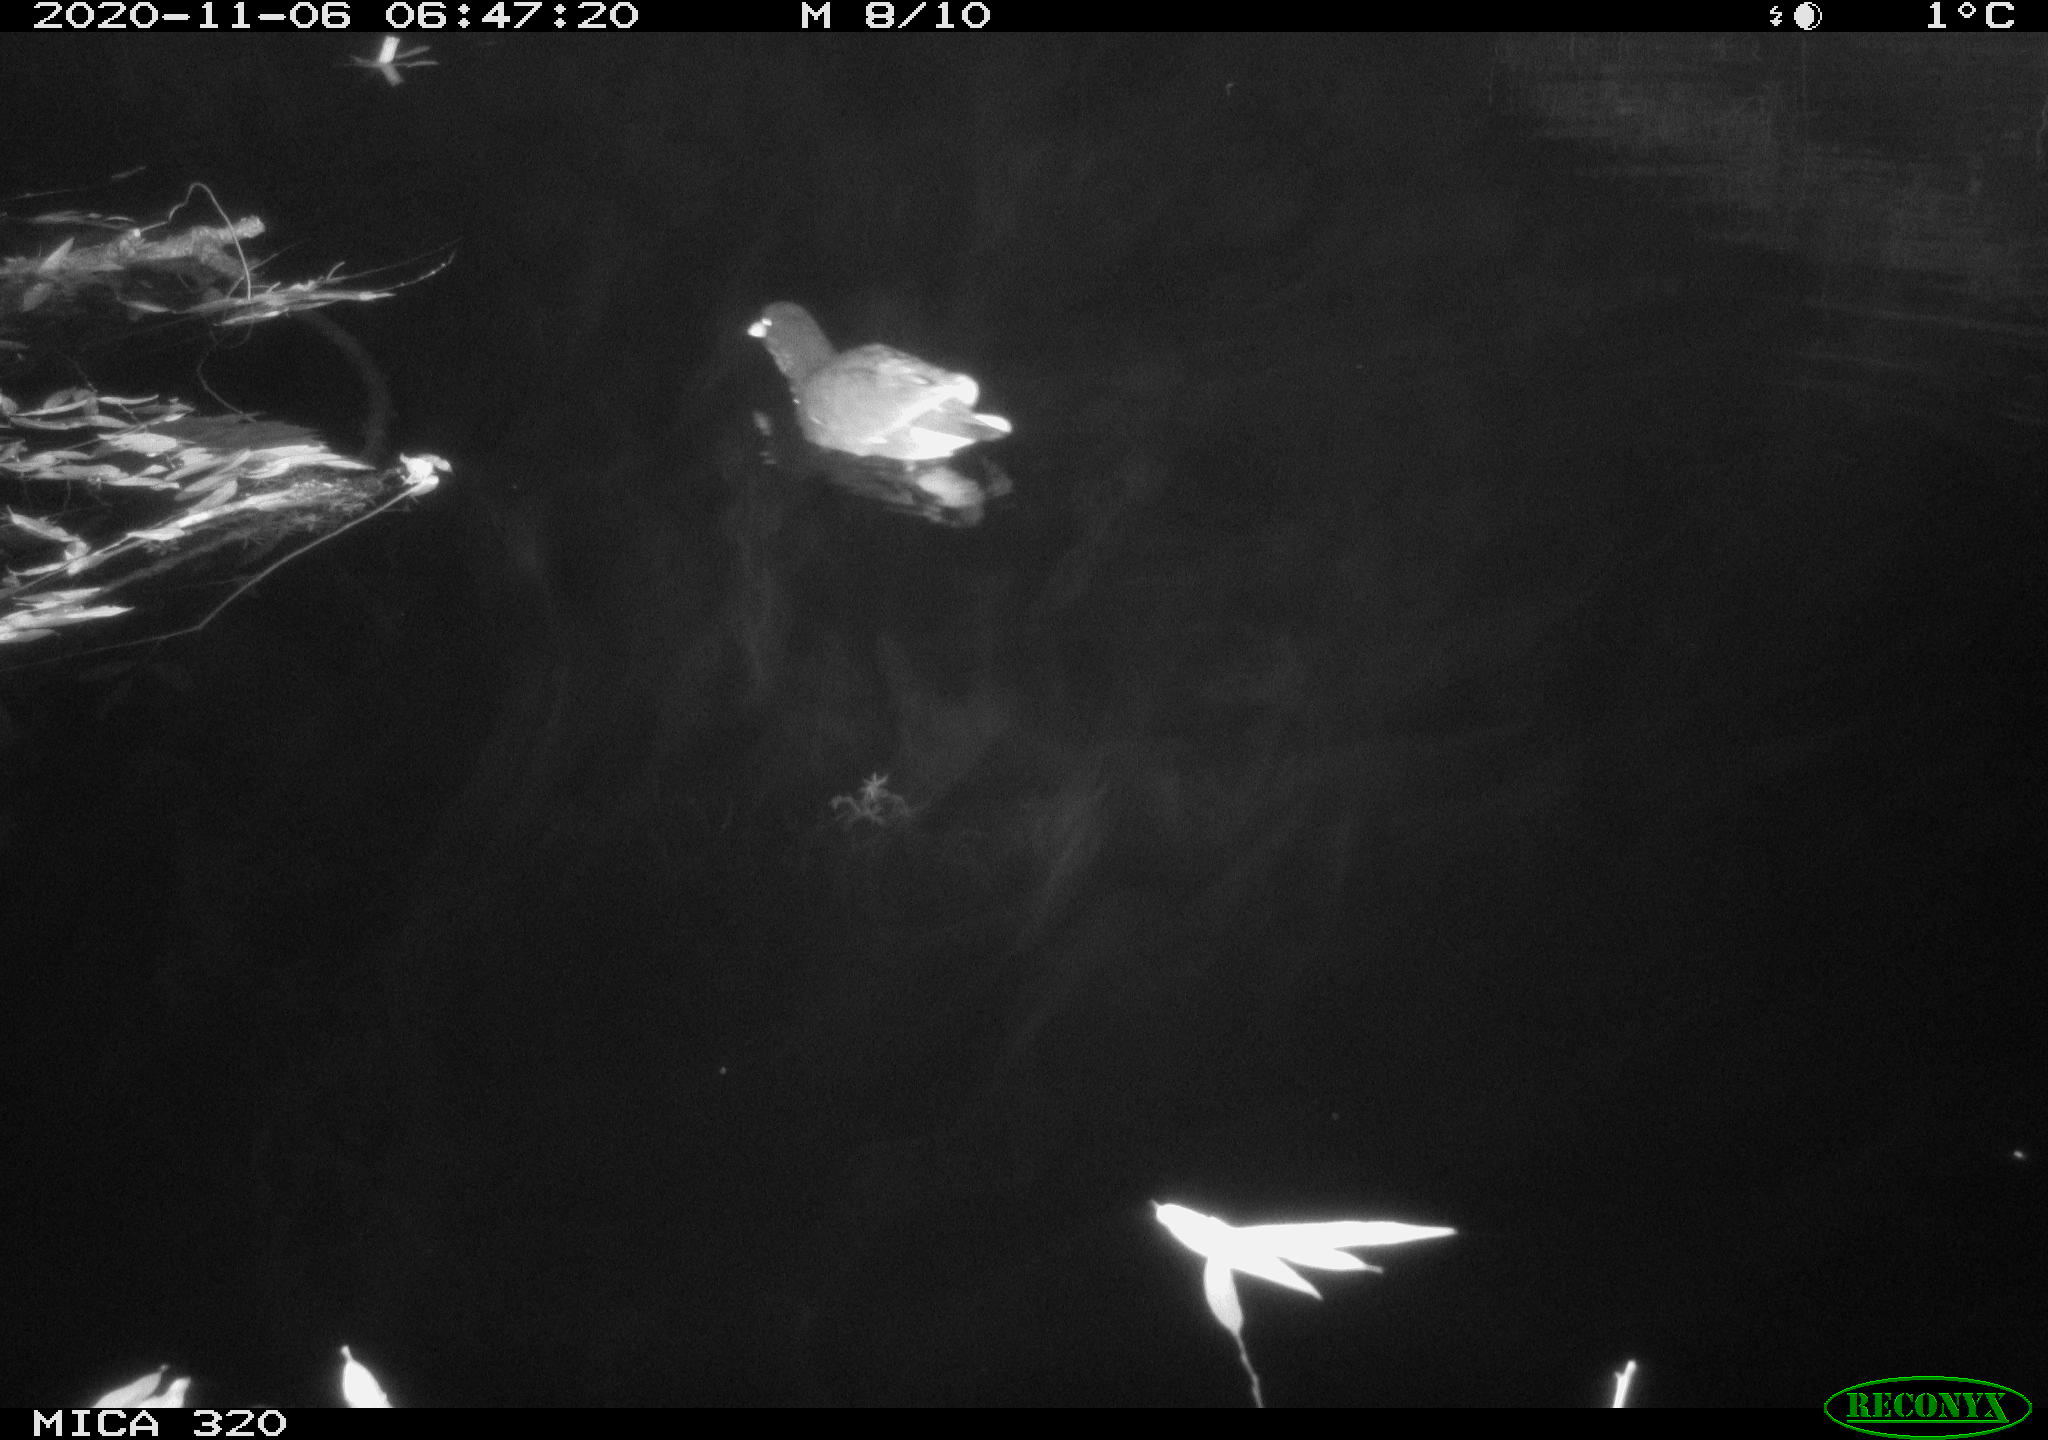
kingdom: Animalia
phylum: Chordata
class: Aves
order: Gruiformes
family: Rallidae
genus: Gallinula
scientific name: Gallinula chloropus
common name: Common moorhen
